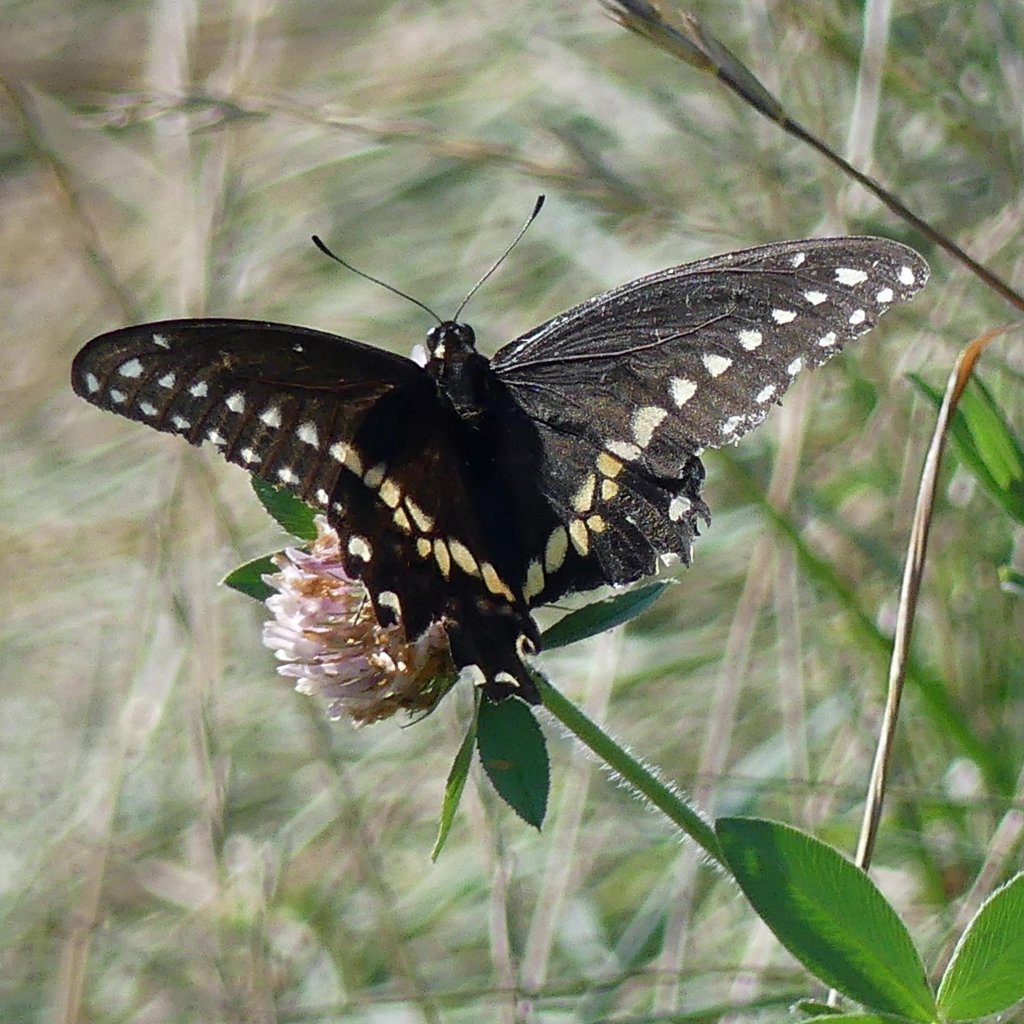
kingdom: Animalia
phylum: Arthropoda
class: Insecta
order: Lepidoptera
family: Papilionidae
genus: Papilio
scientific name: Papilio polyxenes
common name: Black Swallowtail
